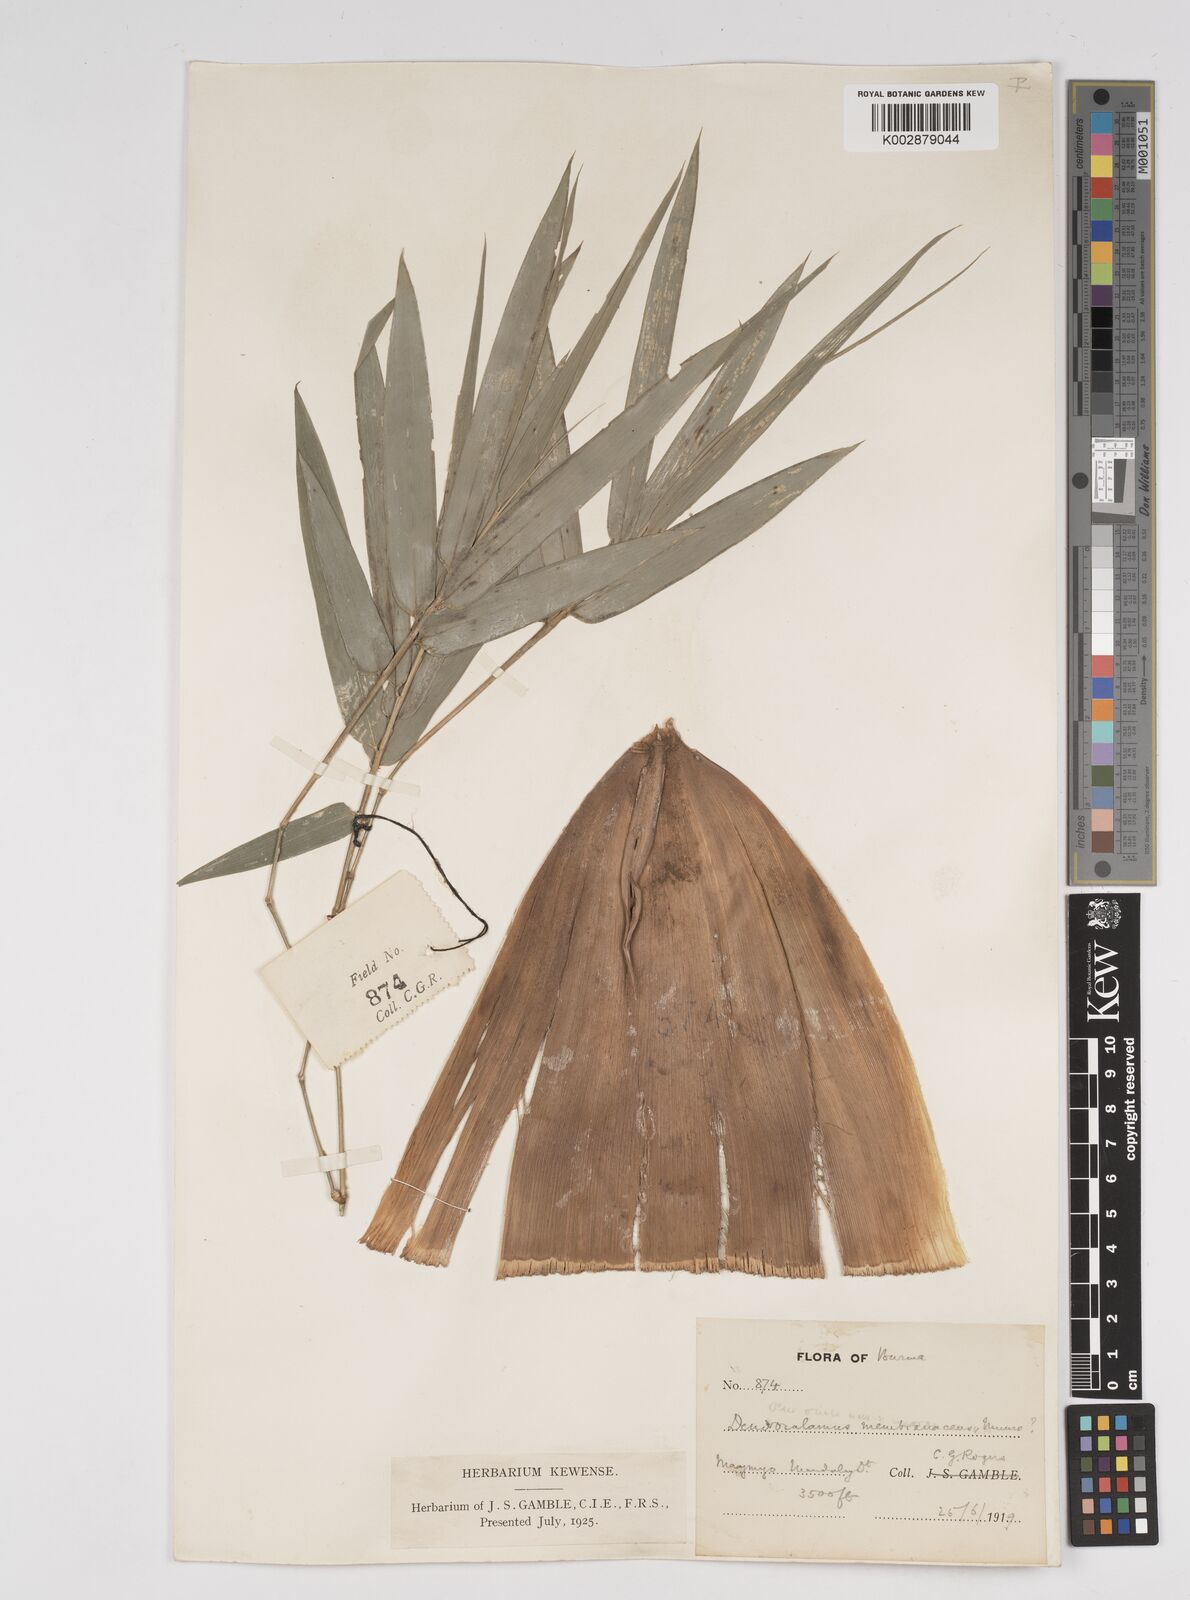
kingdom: Plantae
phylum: Tracheophyta
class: Liliopsida
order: Poales
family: Poaceae
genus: Dendrocalamus
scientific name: Dendrocalamus membranaceus
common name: White bamboo
